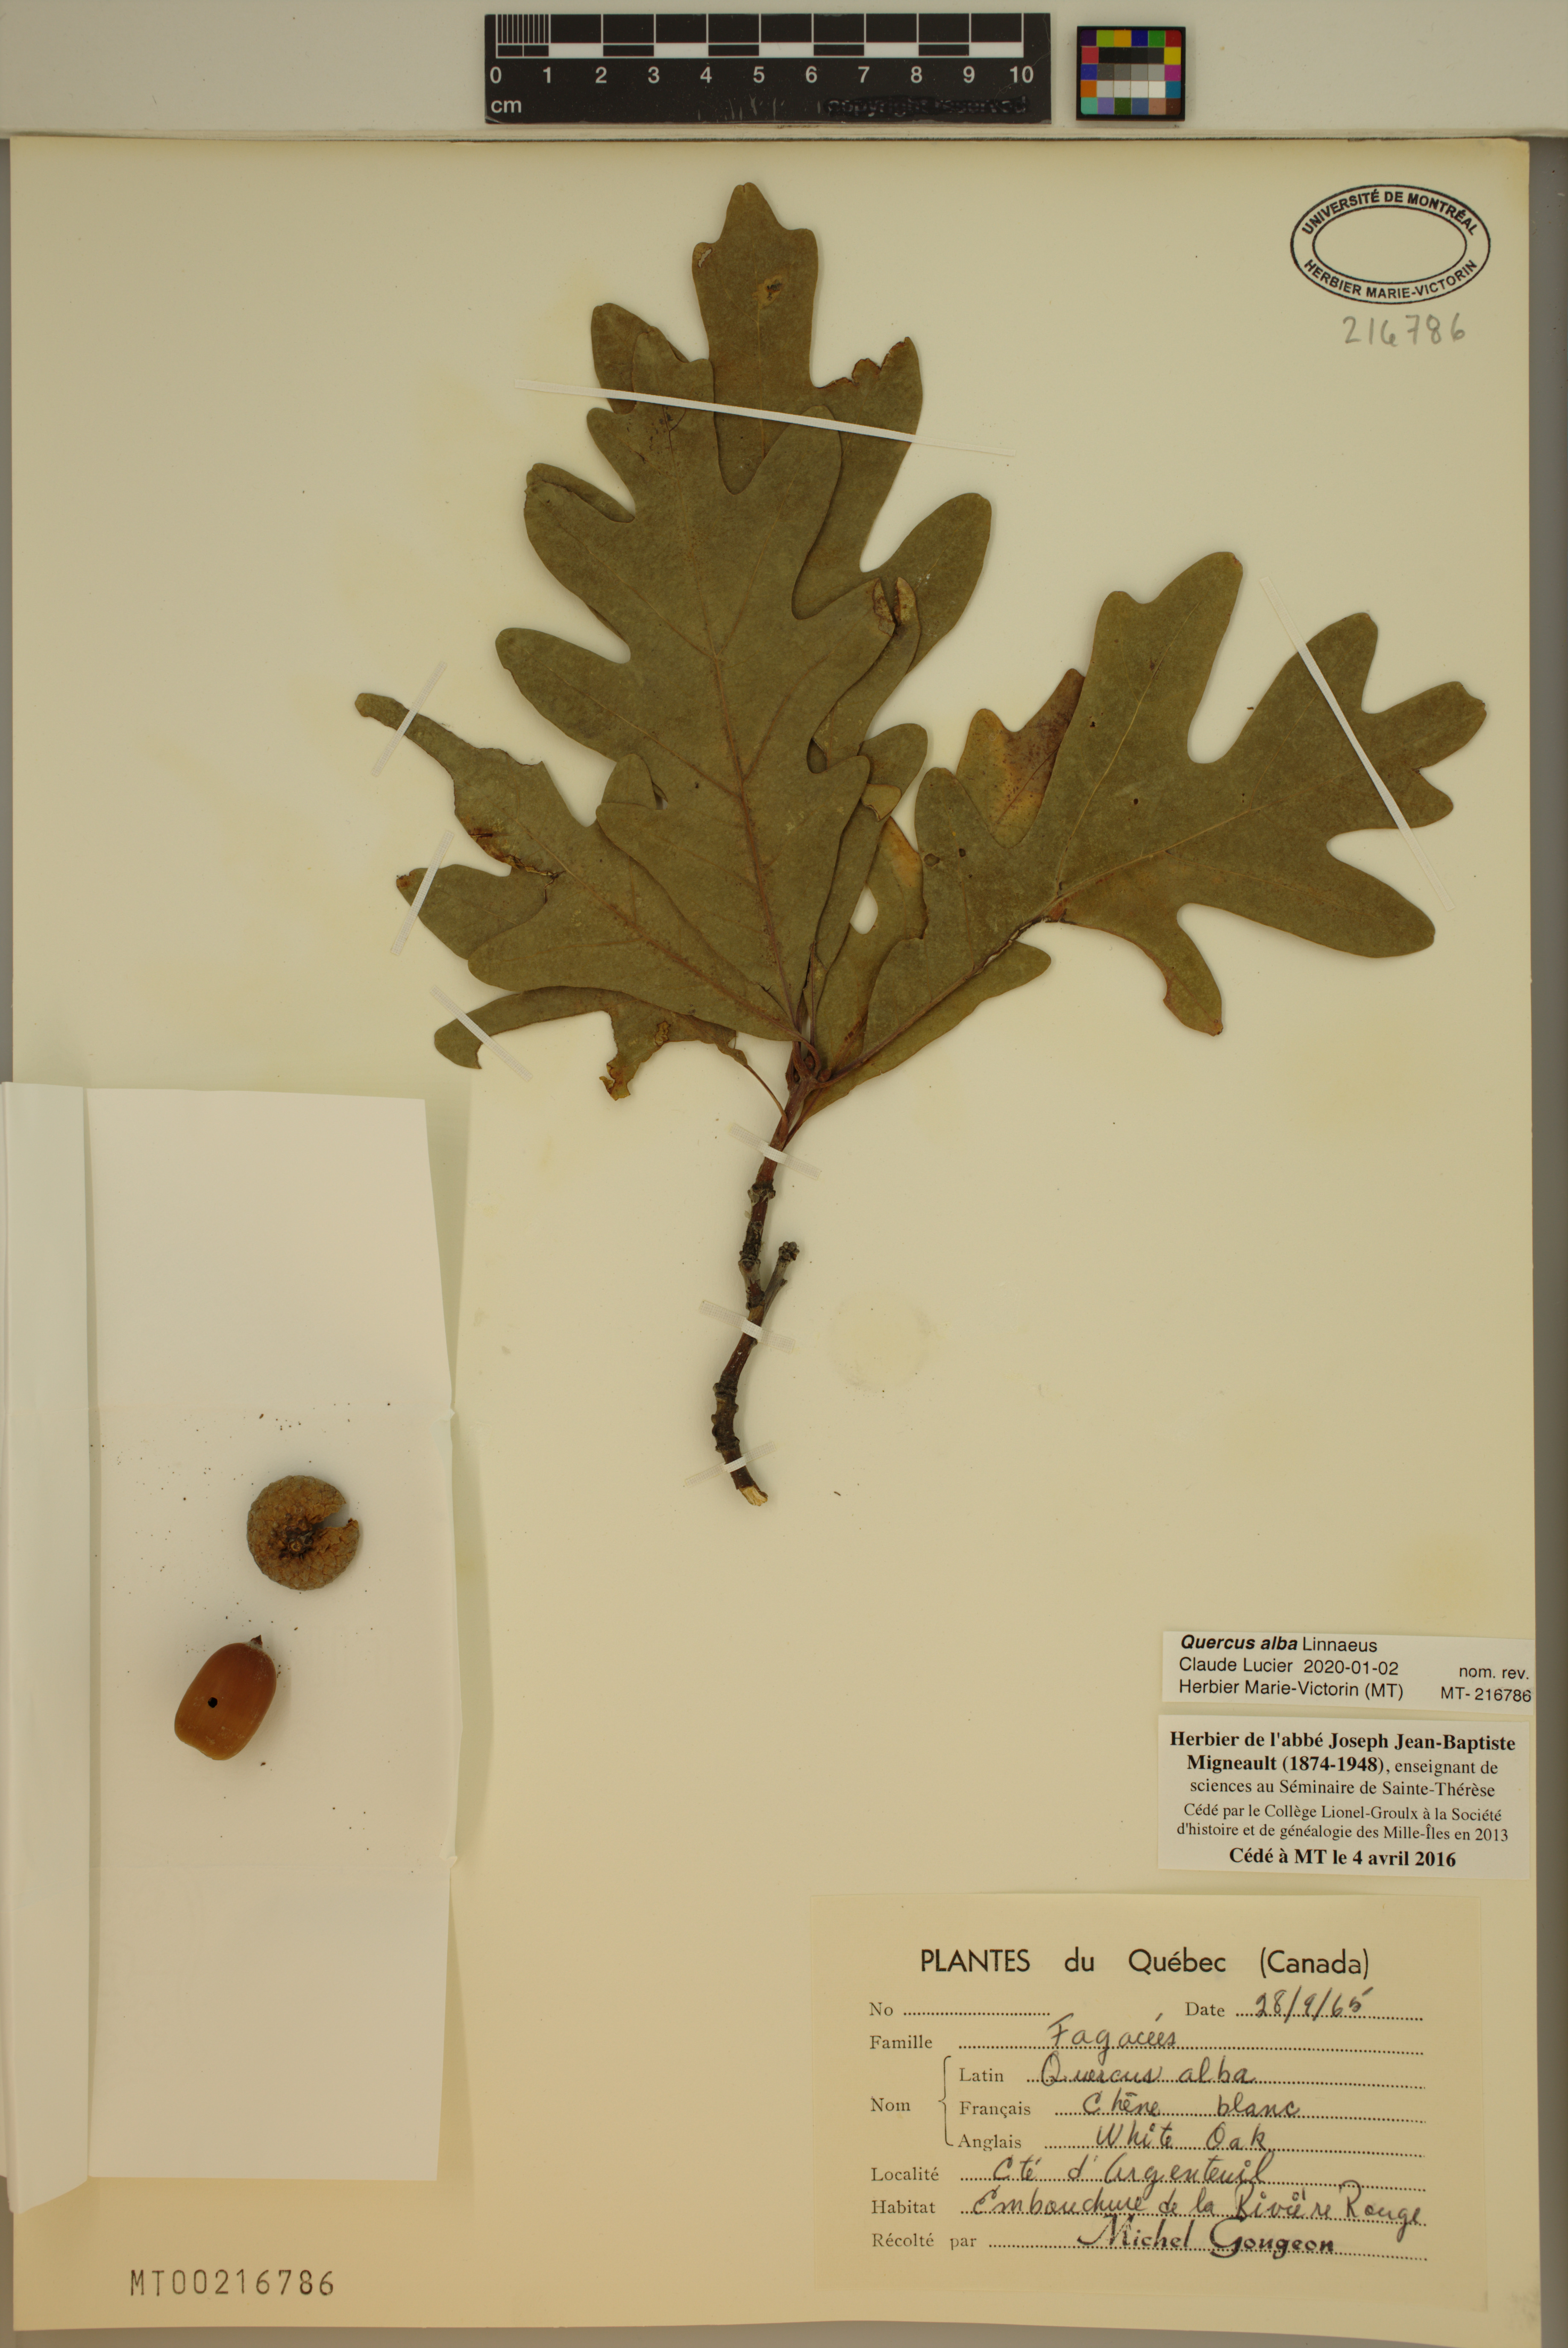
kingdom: Plantae
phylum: Tracheophyta
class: Magnoliopsida
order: Fagales
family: Fagaceae
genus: Quercus
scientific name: Quercus alba
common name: White oak
